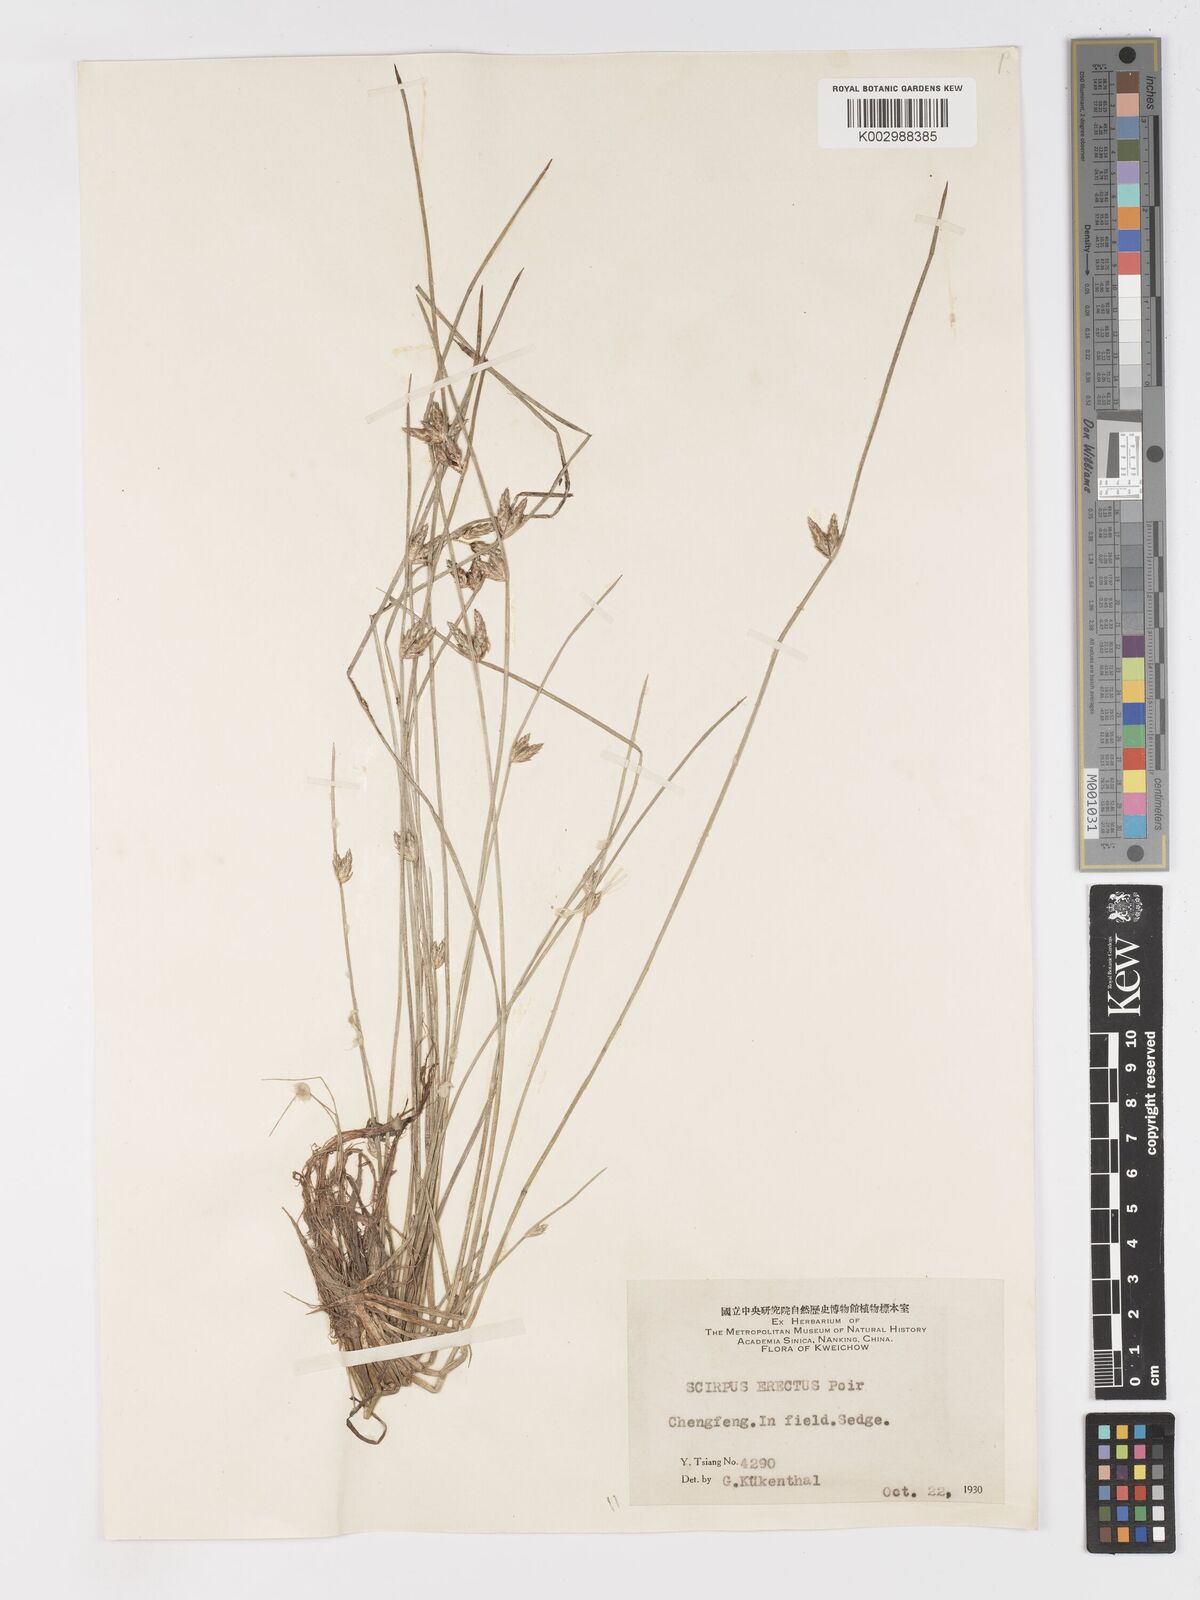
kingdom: Plantae
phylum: Tracheophyta
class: Liliopsida
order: Poales
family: Cyperaceae
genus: Schoenoplectiella
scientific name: Schoenoplectiella erecta
